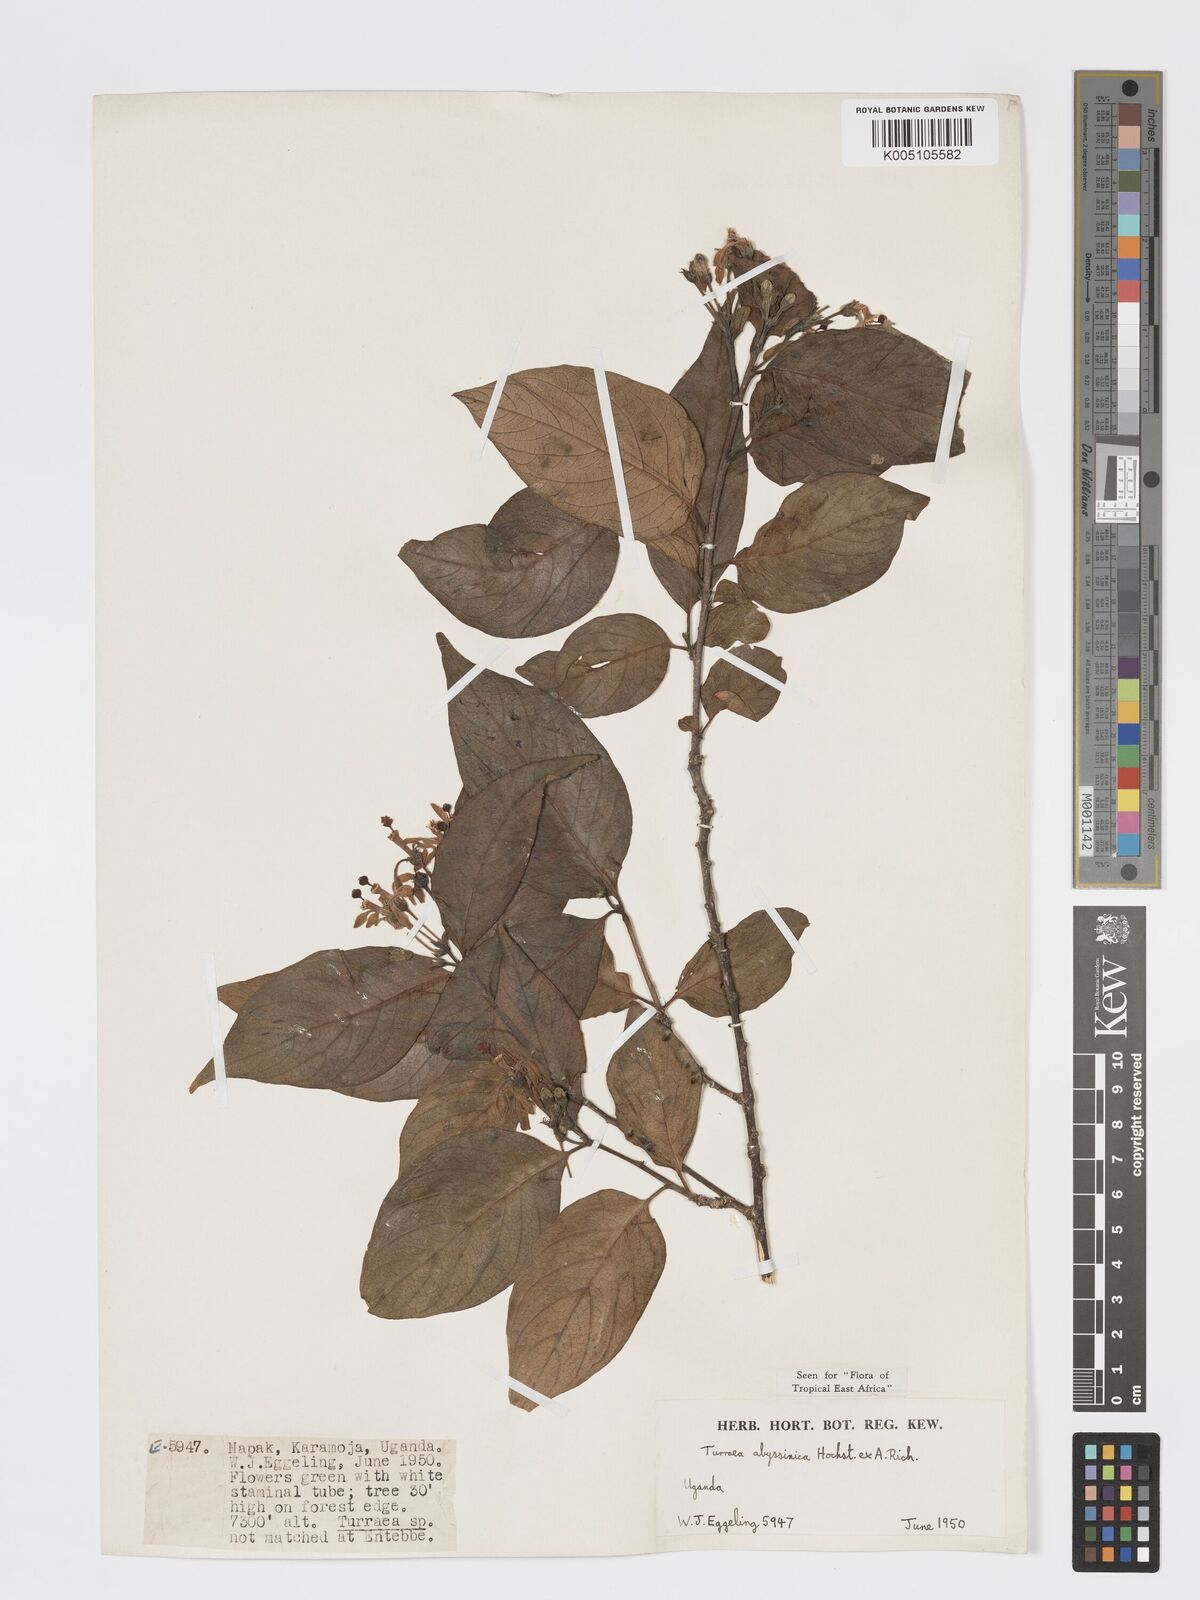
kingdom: Plantae
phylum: Tracheophyta
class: Magnoliopsida
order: Sapindales
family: Meliaceae
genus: Turraea
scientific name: Turraea abyssinica
